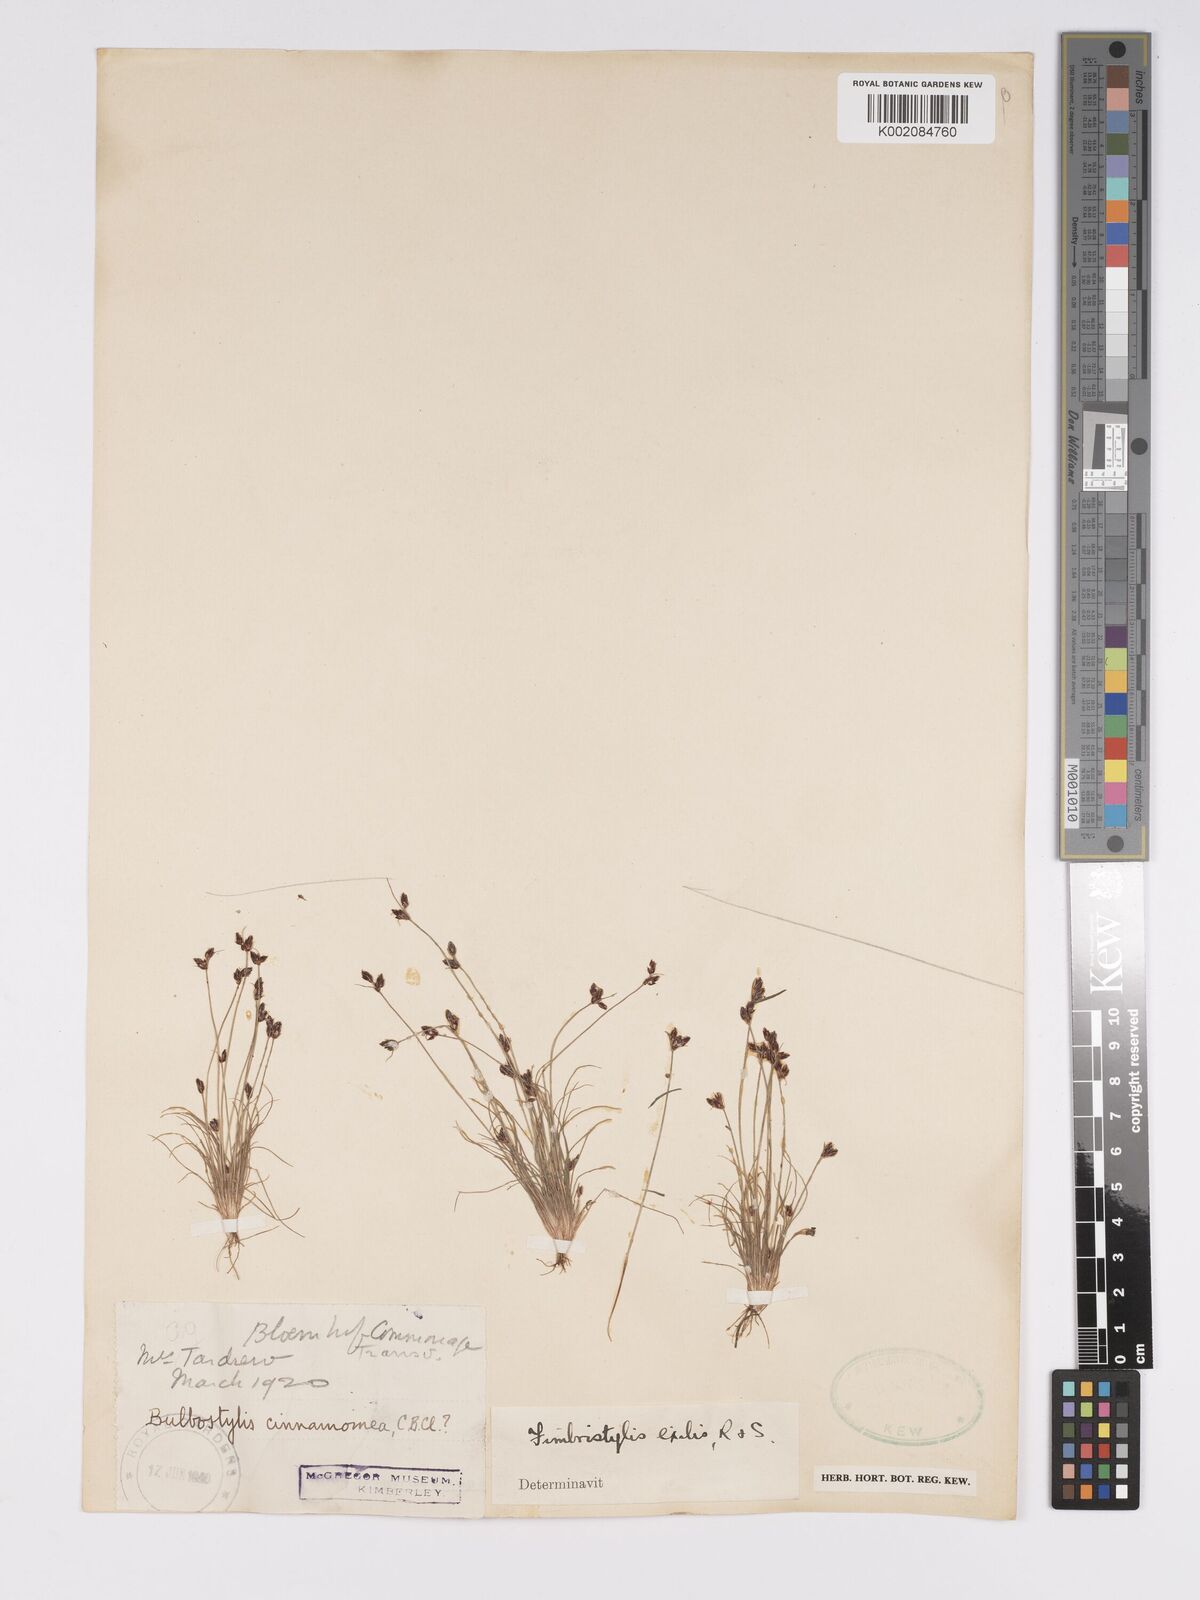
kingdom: Plantae
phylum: Tracheophyta
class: Liliopsida
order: Poales
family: Cyperaceae
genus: Bulbostylis
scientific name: Bulbostylis
